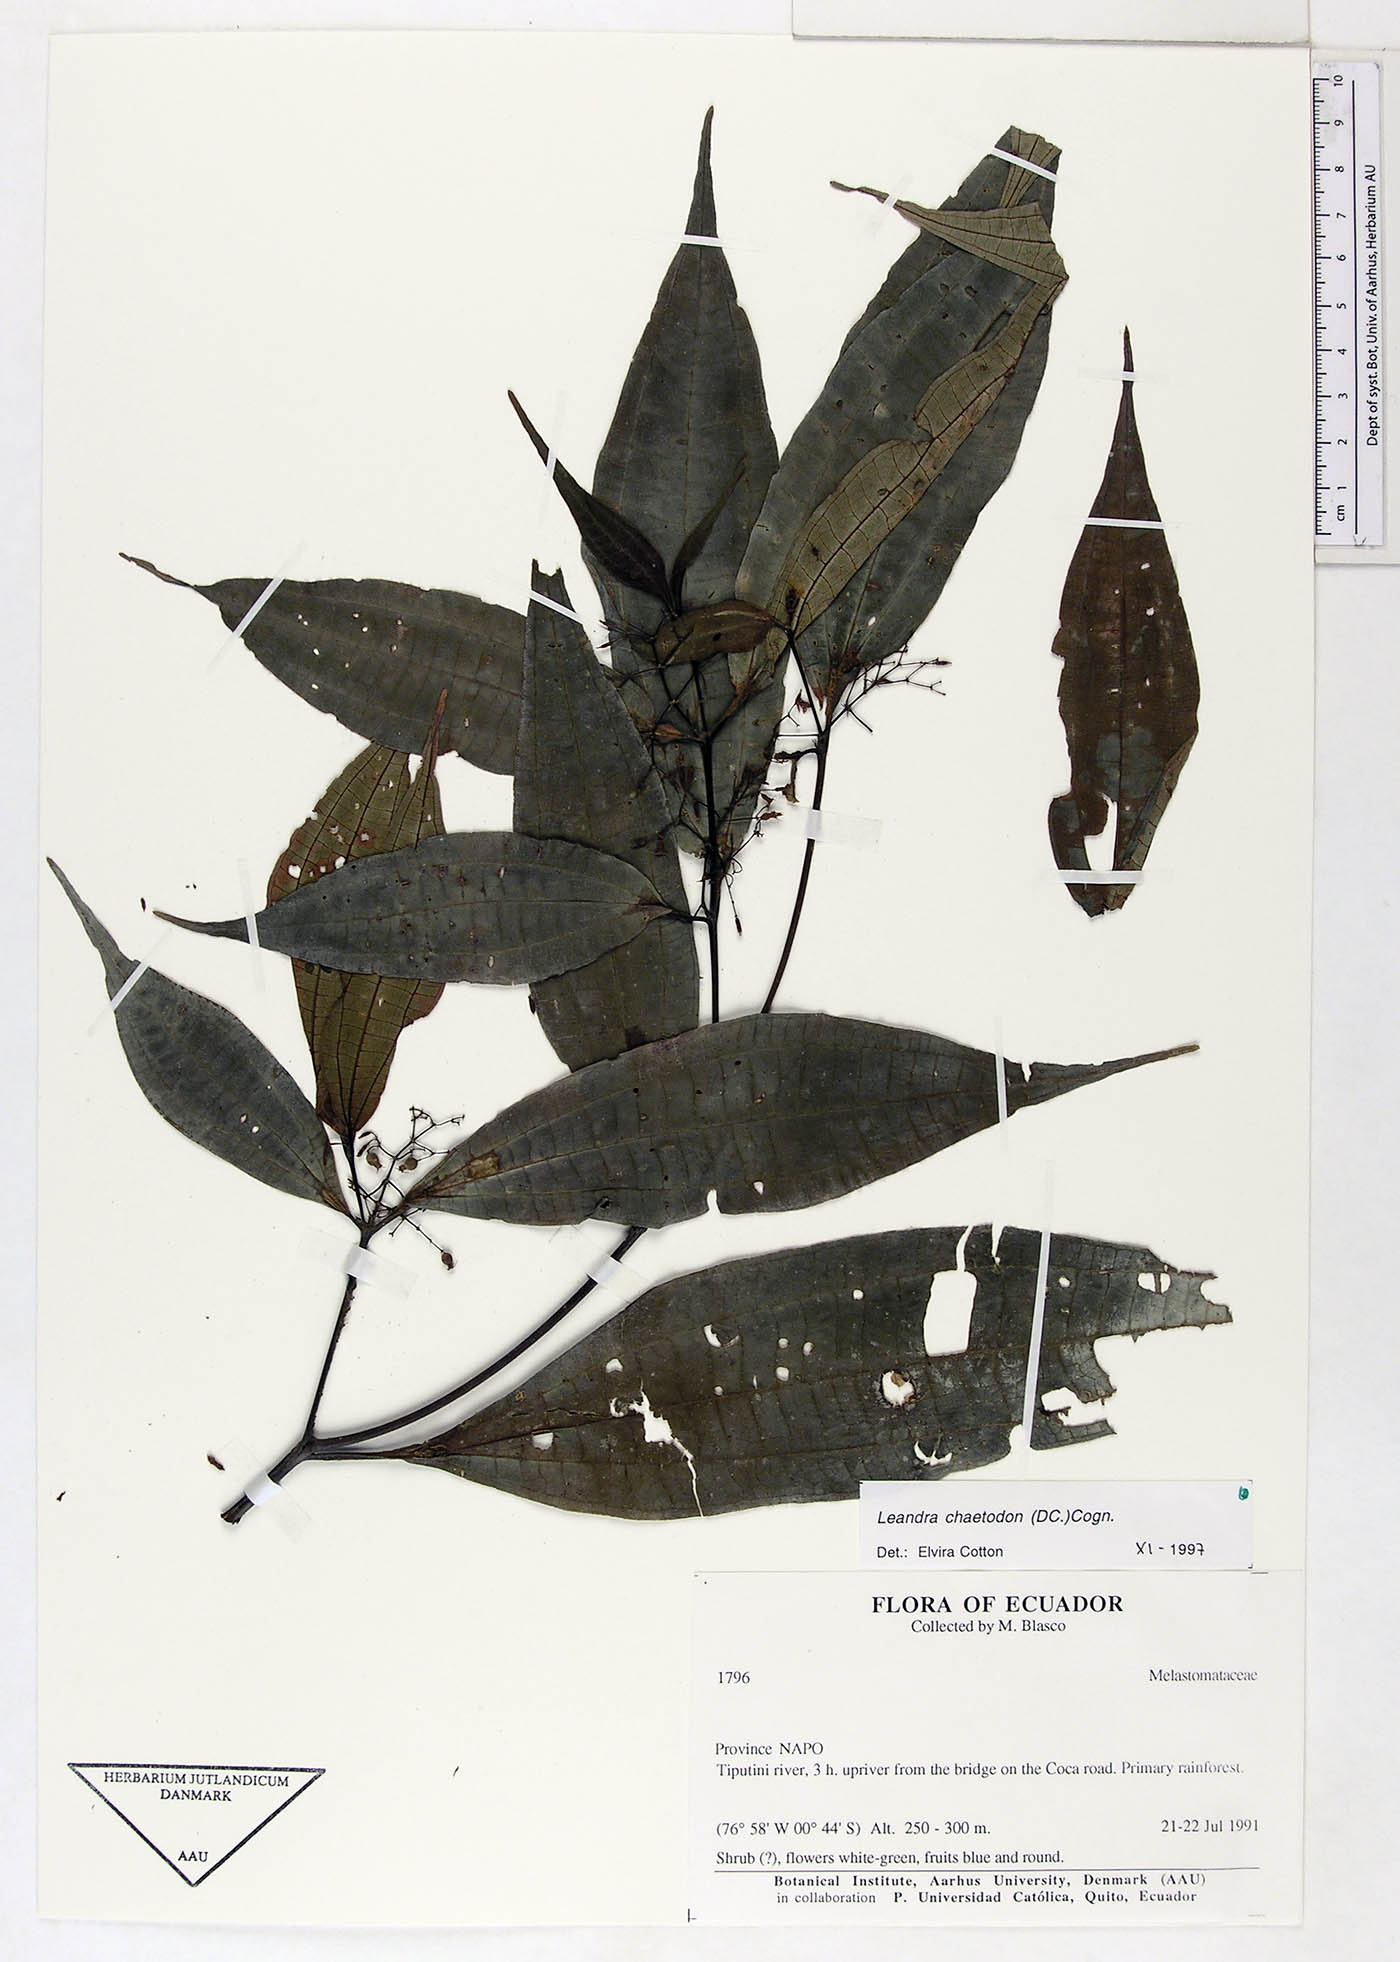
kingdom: Plantae
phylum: Tracheophyta
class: Magnoliopsida
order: Myrtales
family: Melastomataceae
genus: Miconia
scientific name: Miconia chaetodonta
